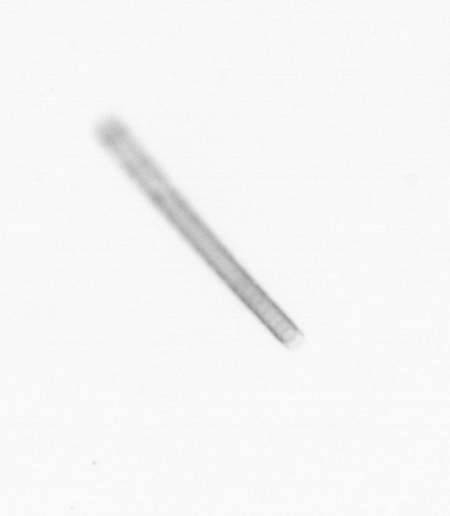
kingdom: Chromista
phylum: Ochrophyta
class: Bacillariophyceae
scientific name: Bacillariophyceae
